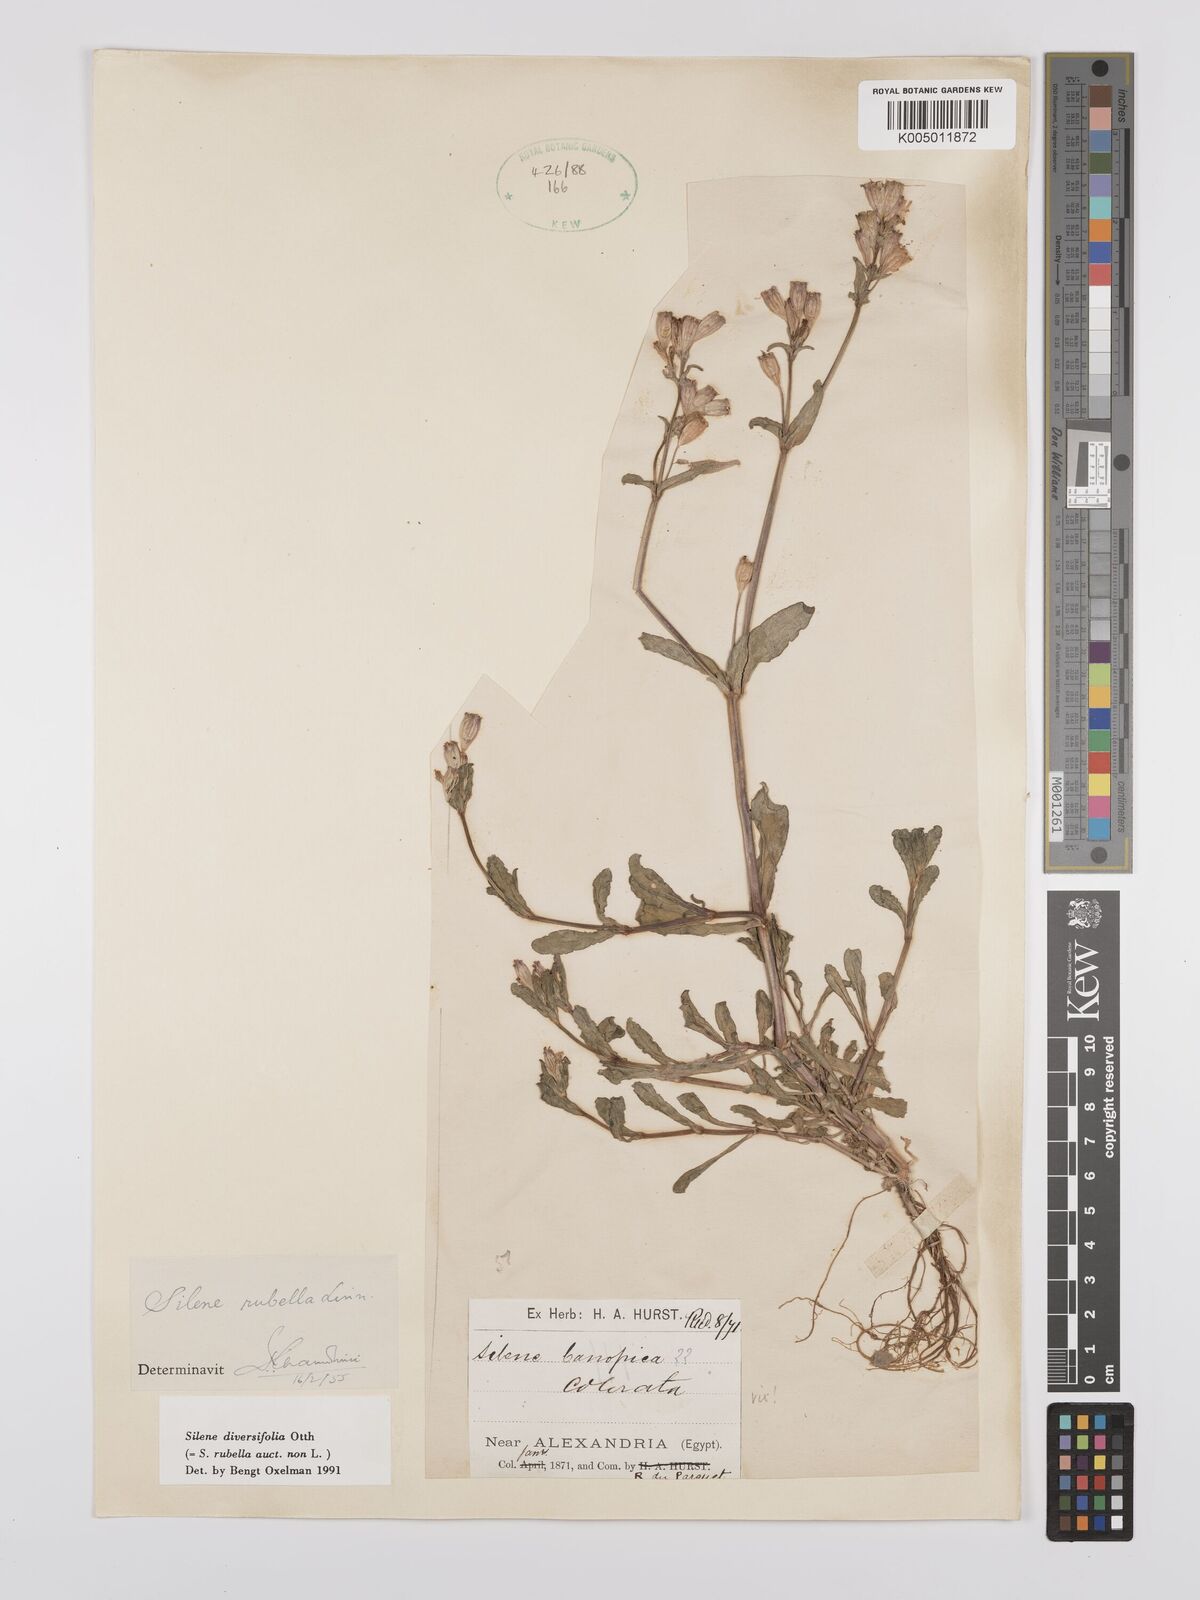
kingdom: Plantae
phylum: Tracheophyta
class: Magnoliopsida
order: Caryophyllales
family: Caryophyllaceae
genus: Silene
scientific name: Silene rubella
